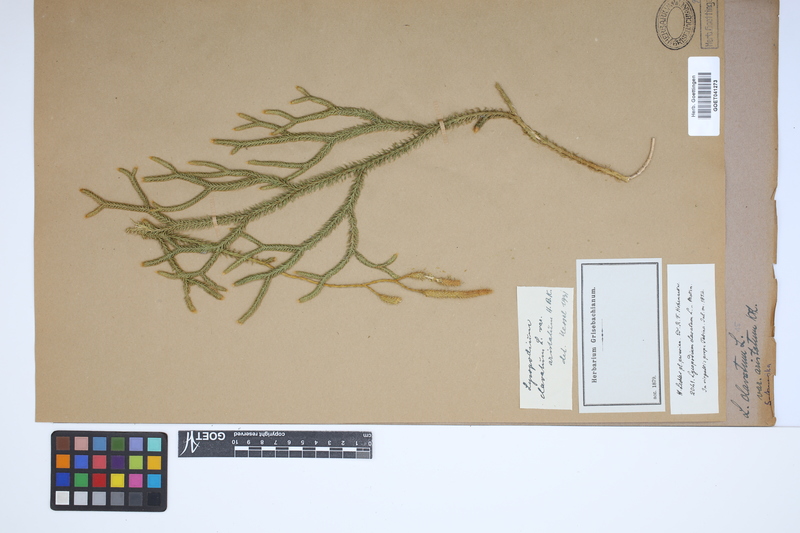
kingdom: Plantae
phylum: Tracheophyta
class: Lycopodiopsida
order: Lycopodiales
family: Lycopodiaceae
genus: Lycopodium
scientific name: Lycopodium clavatum
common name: Stag's-horn clubmoss
